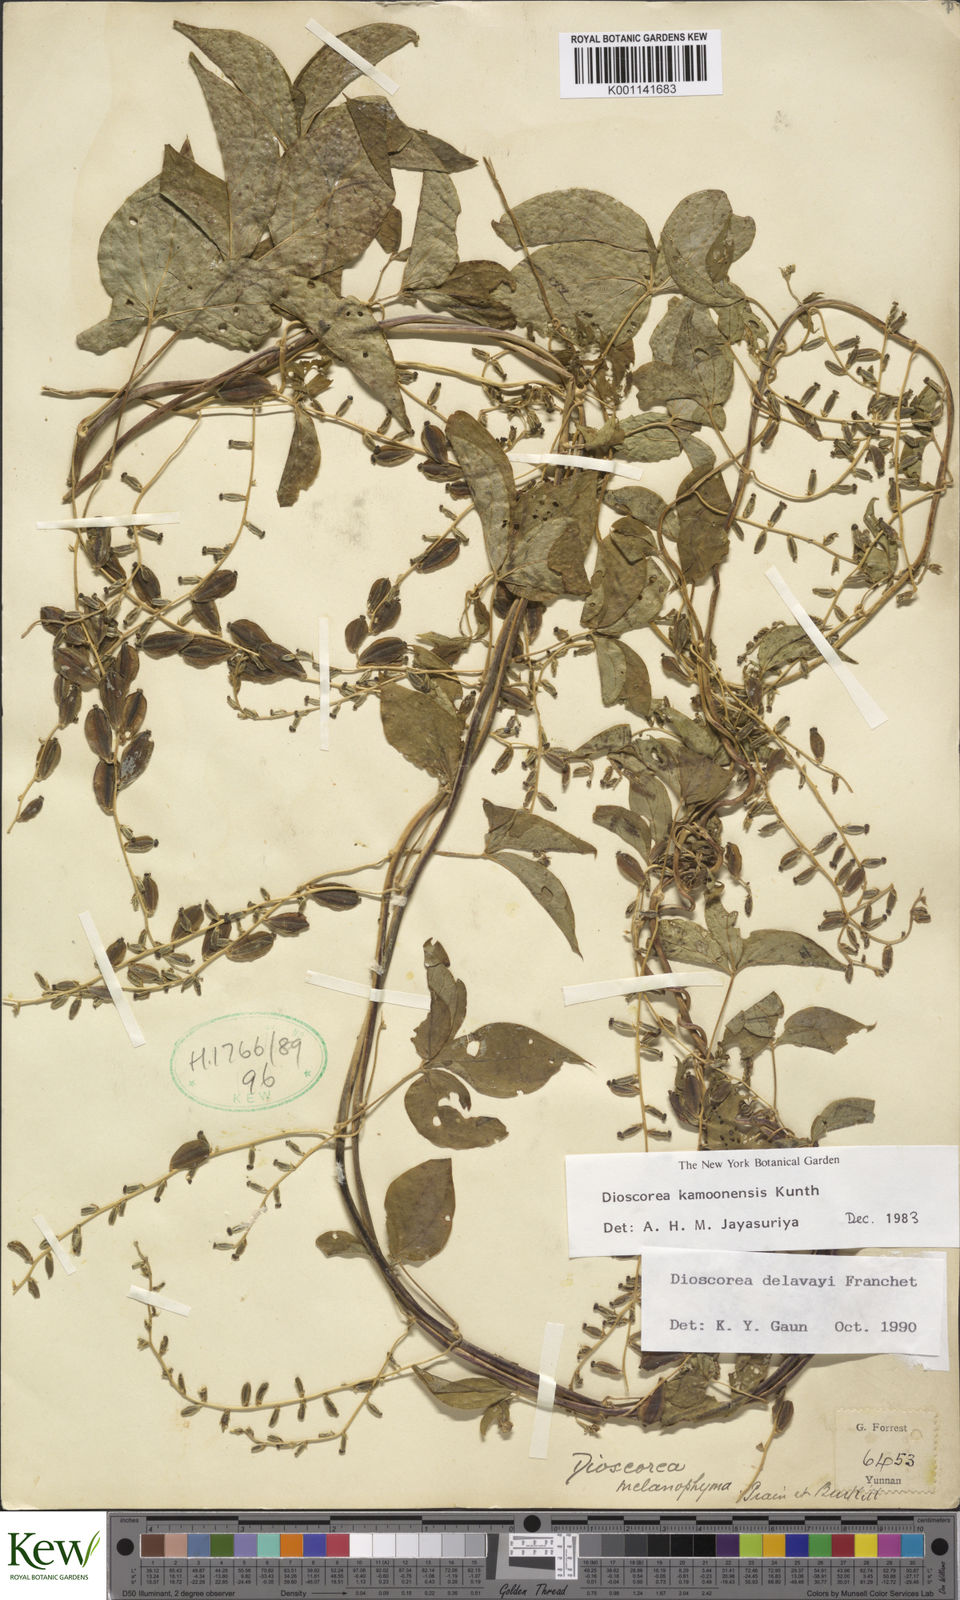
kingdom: Plantae
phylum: Tracheophyta
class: Liliopsida
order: Dioscoreales
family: Dioscoreaceae
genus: Dioscorea
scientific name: Dioscorea kamoonensis
